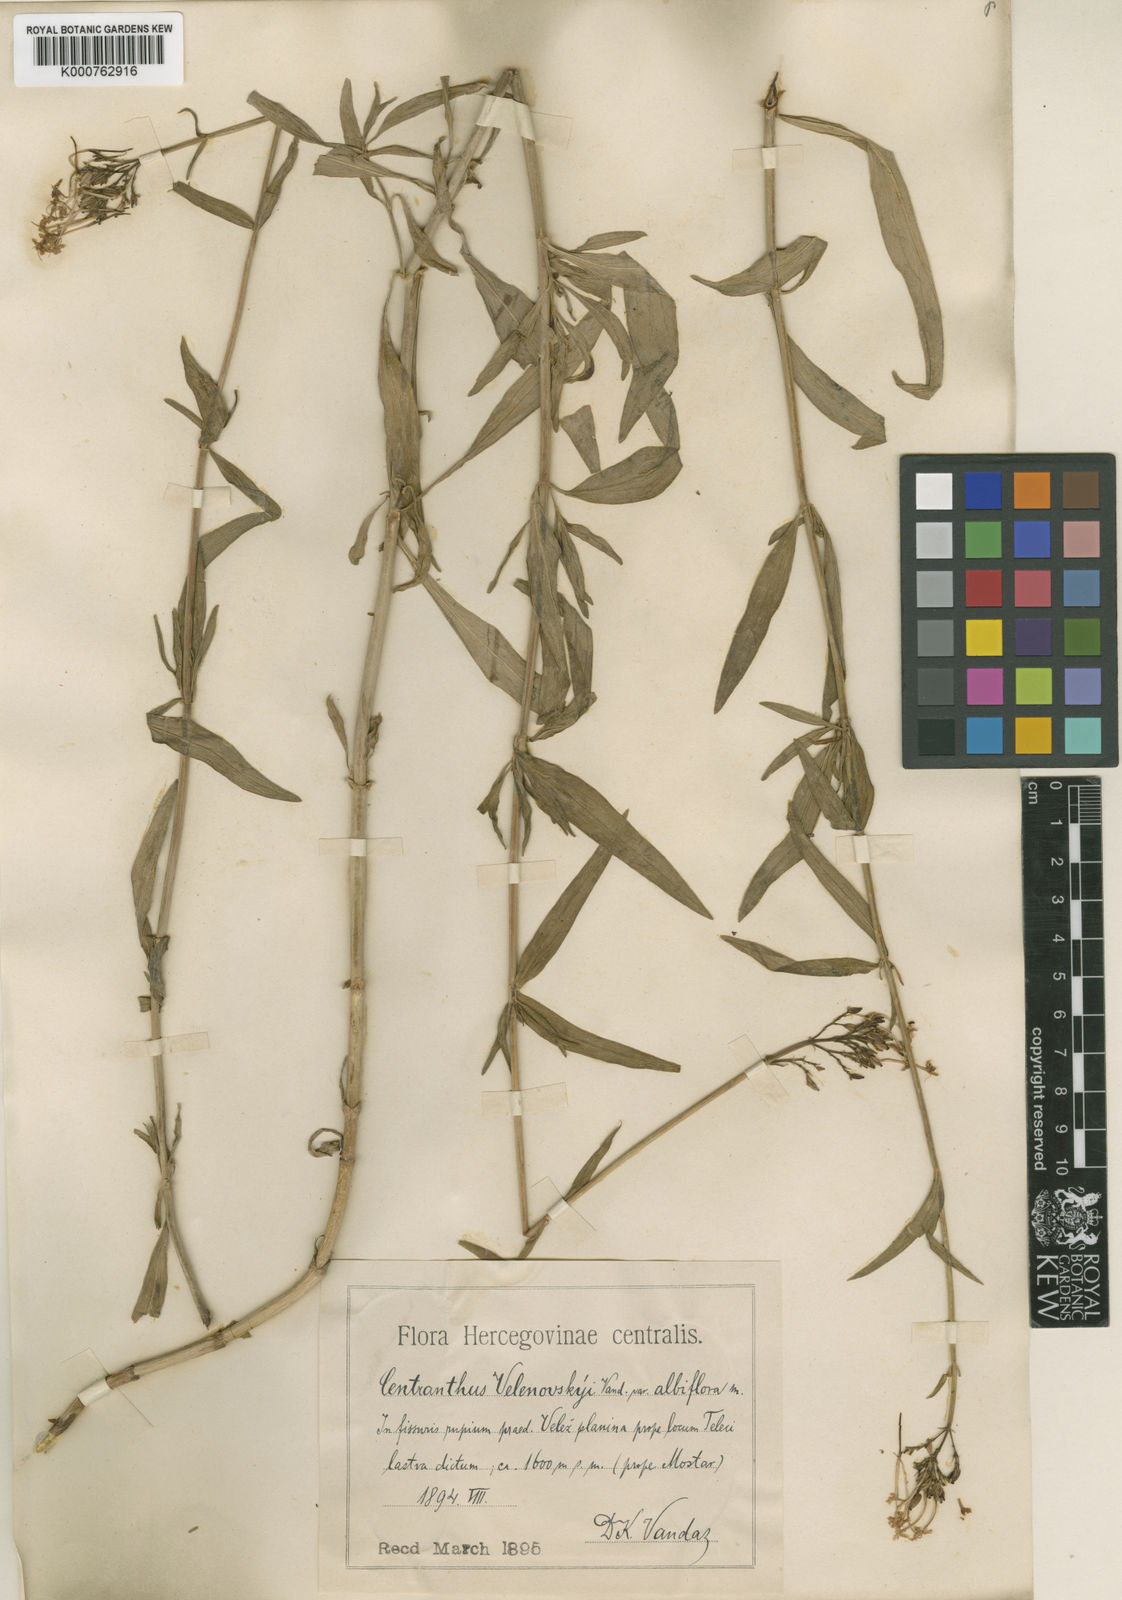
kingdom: Plantae
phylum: Tracheophyta
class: Magnoliopsida
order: Dipsacales
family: Caprifoliaceae
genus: Centranthus
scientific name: Centranthus ruber
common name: Red valerian
